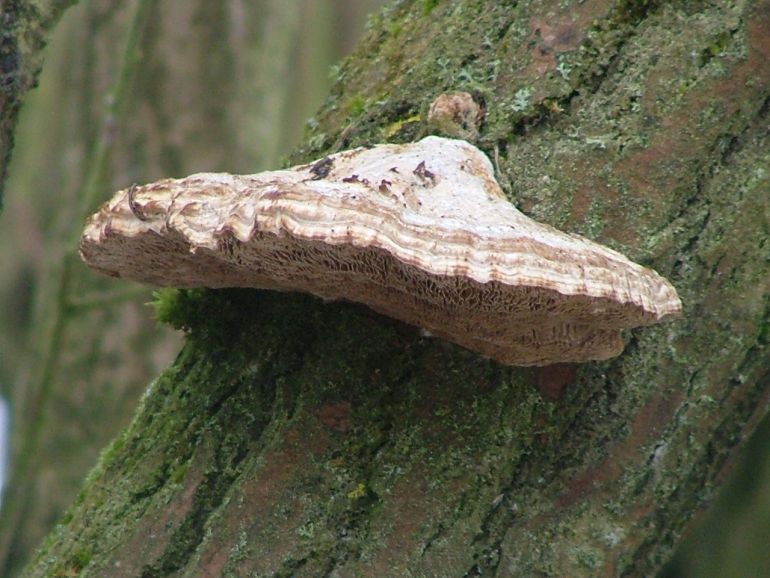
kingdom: Fungi
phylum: Basidiomycota
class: Agaricomycetes
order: Polyporales
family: Polyporaceae
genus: Daedaleopsis
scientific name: Daedaleopsis confragosa
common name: rødmende læderporesvamp
